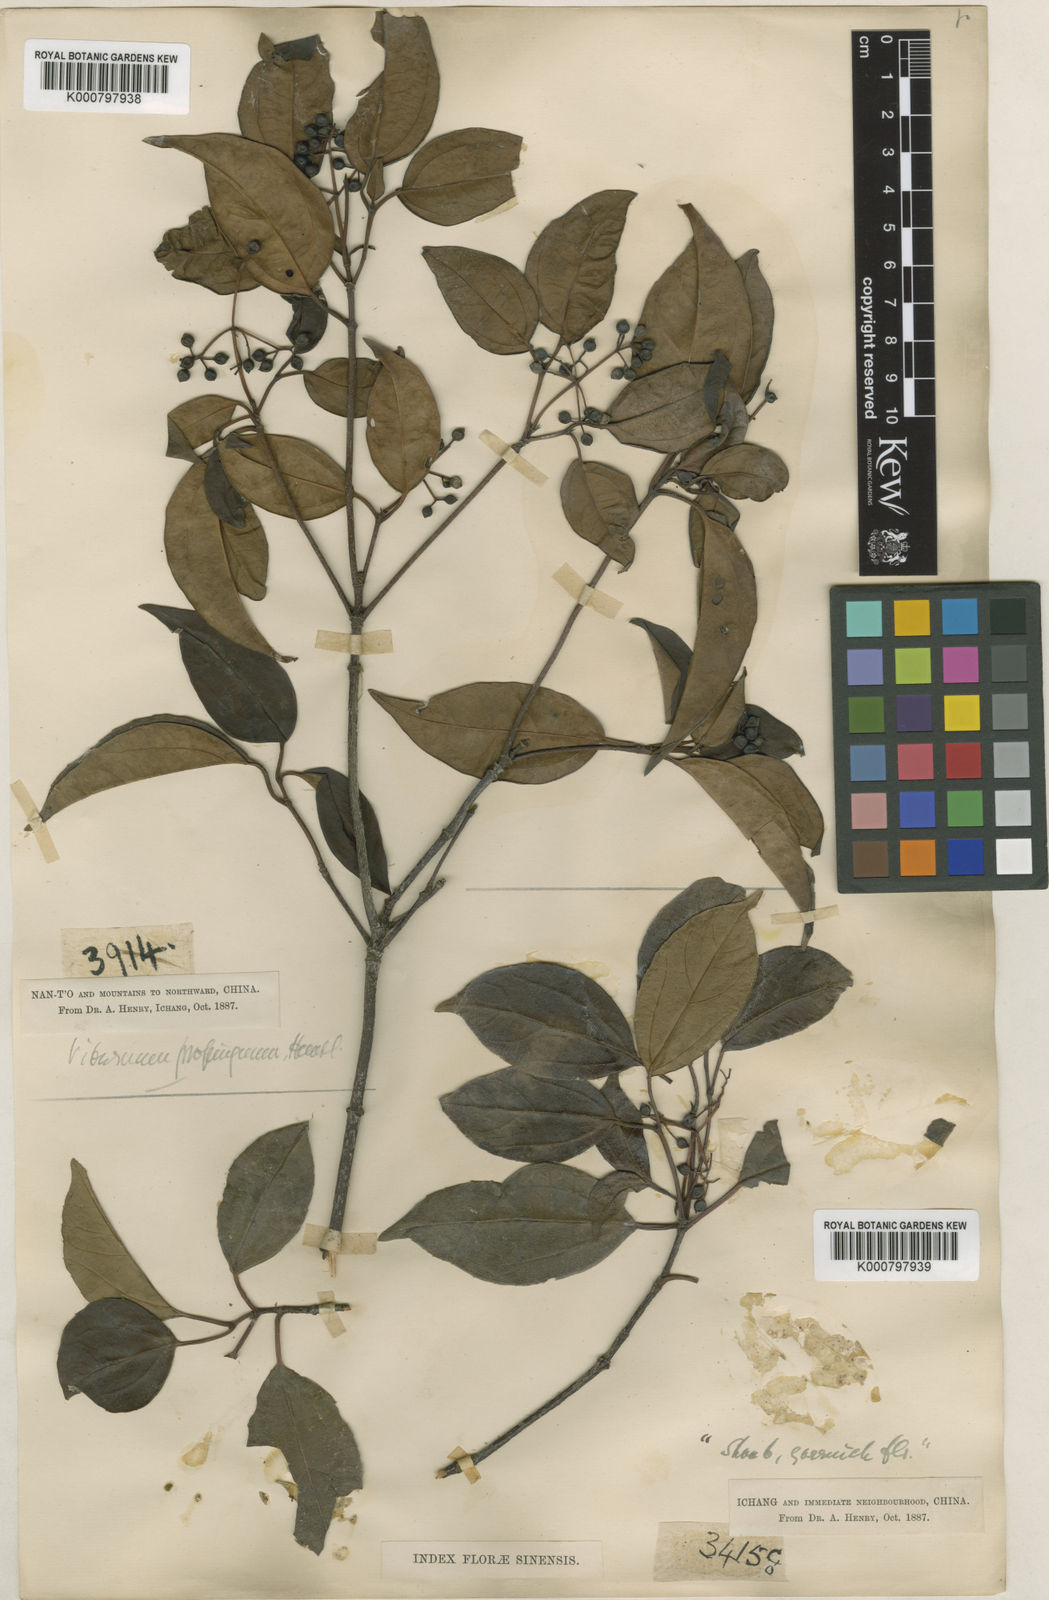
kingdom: Plantae
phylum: Tracheophyta
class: Magnoliopsida
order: Dipsacales
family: Viburnaceae
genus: Viburnum
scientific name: Viburnum propinquum
